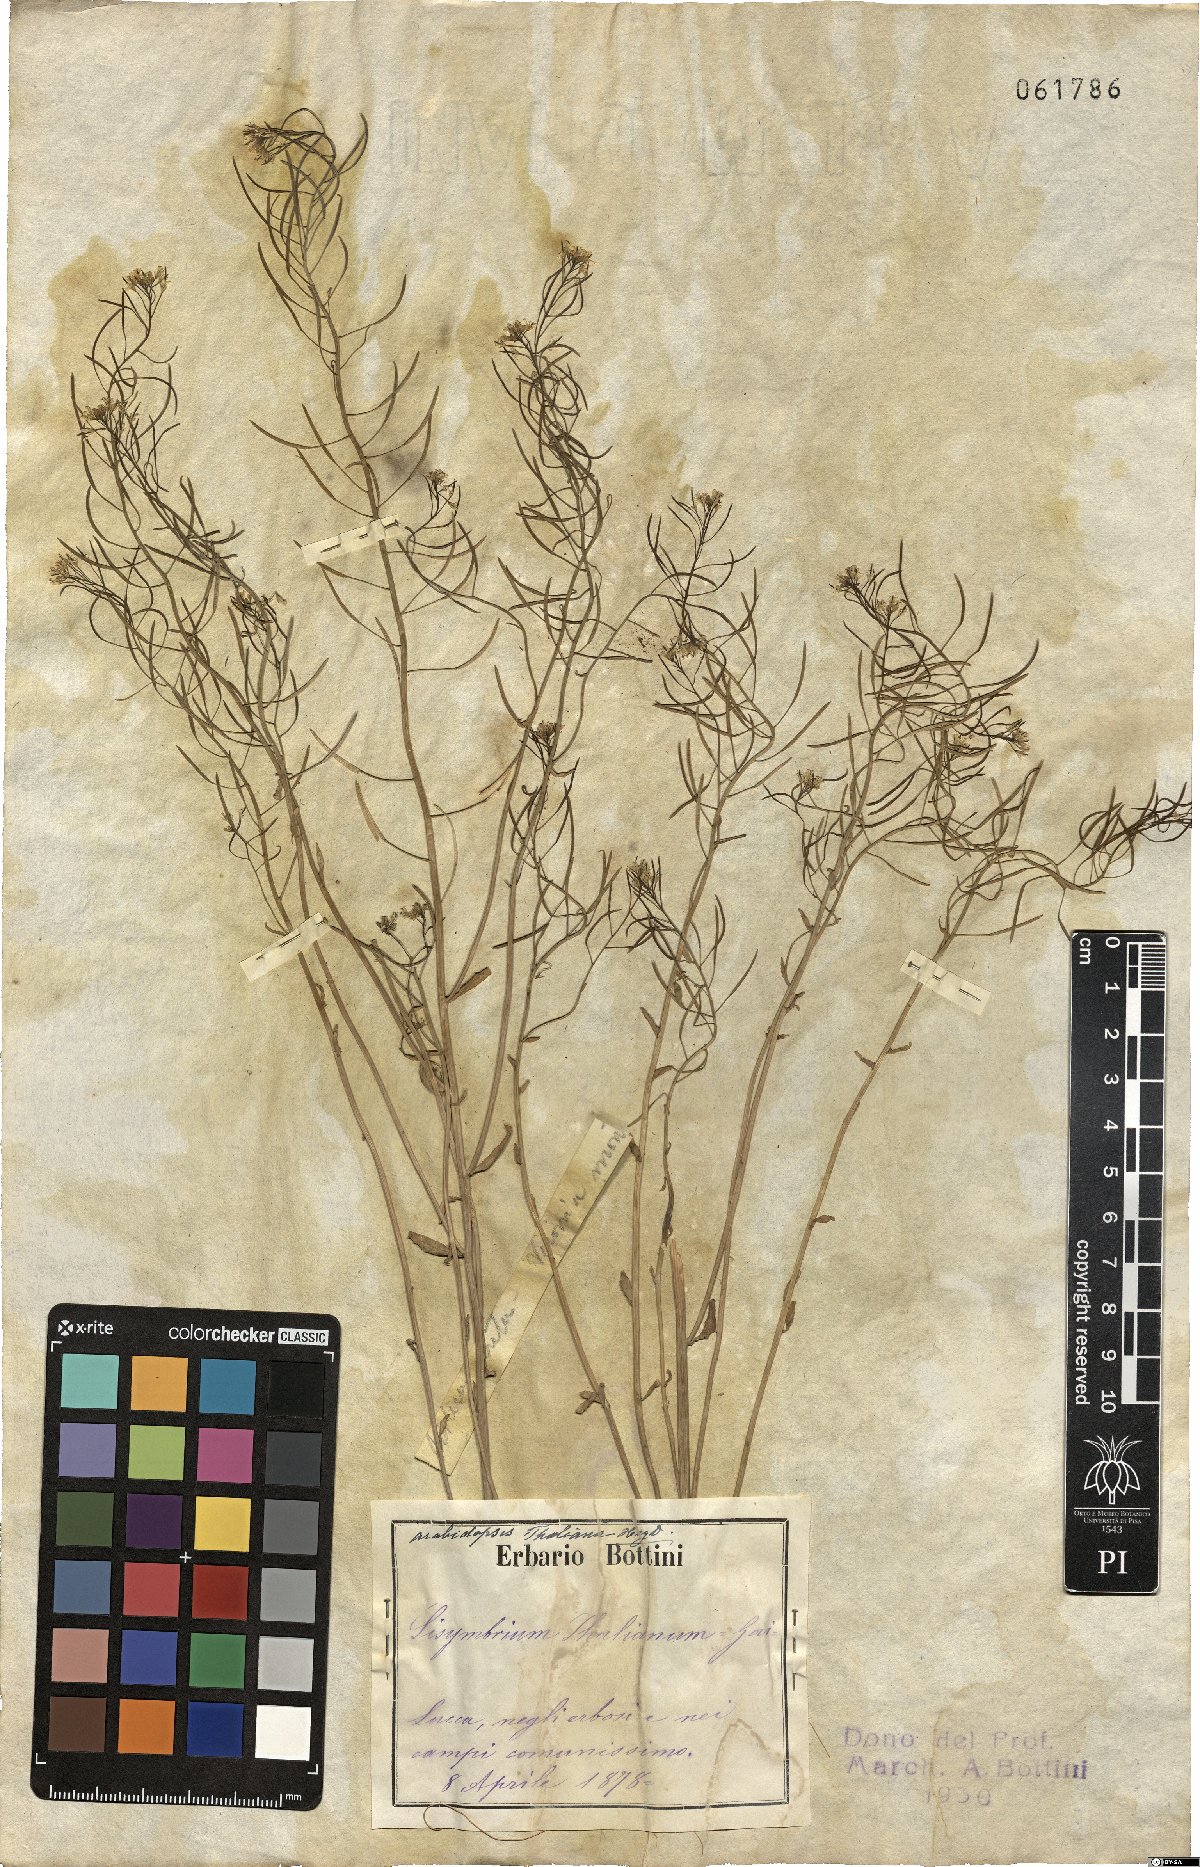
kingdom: Plantae
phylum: Tracheophyta
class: Magnoliopsida
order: Brassicales
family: Brassicaceae
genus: Arabidopsis
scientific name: Arabidopsis thaliana
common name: Thale cress
